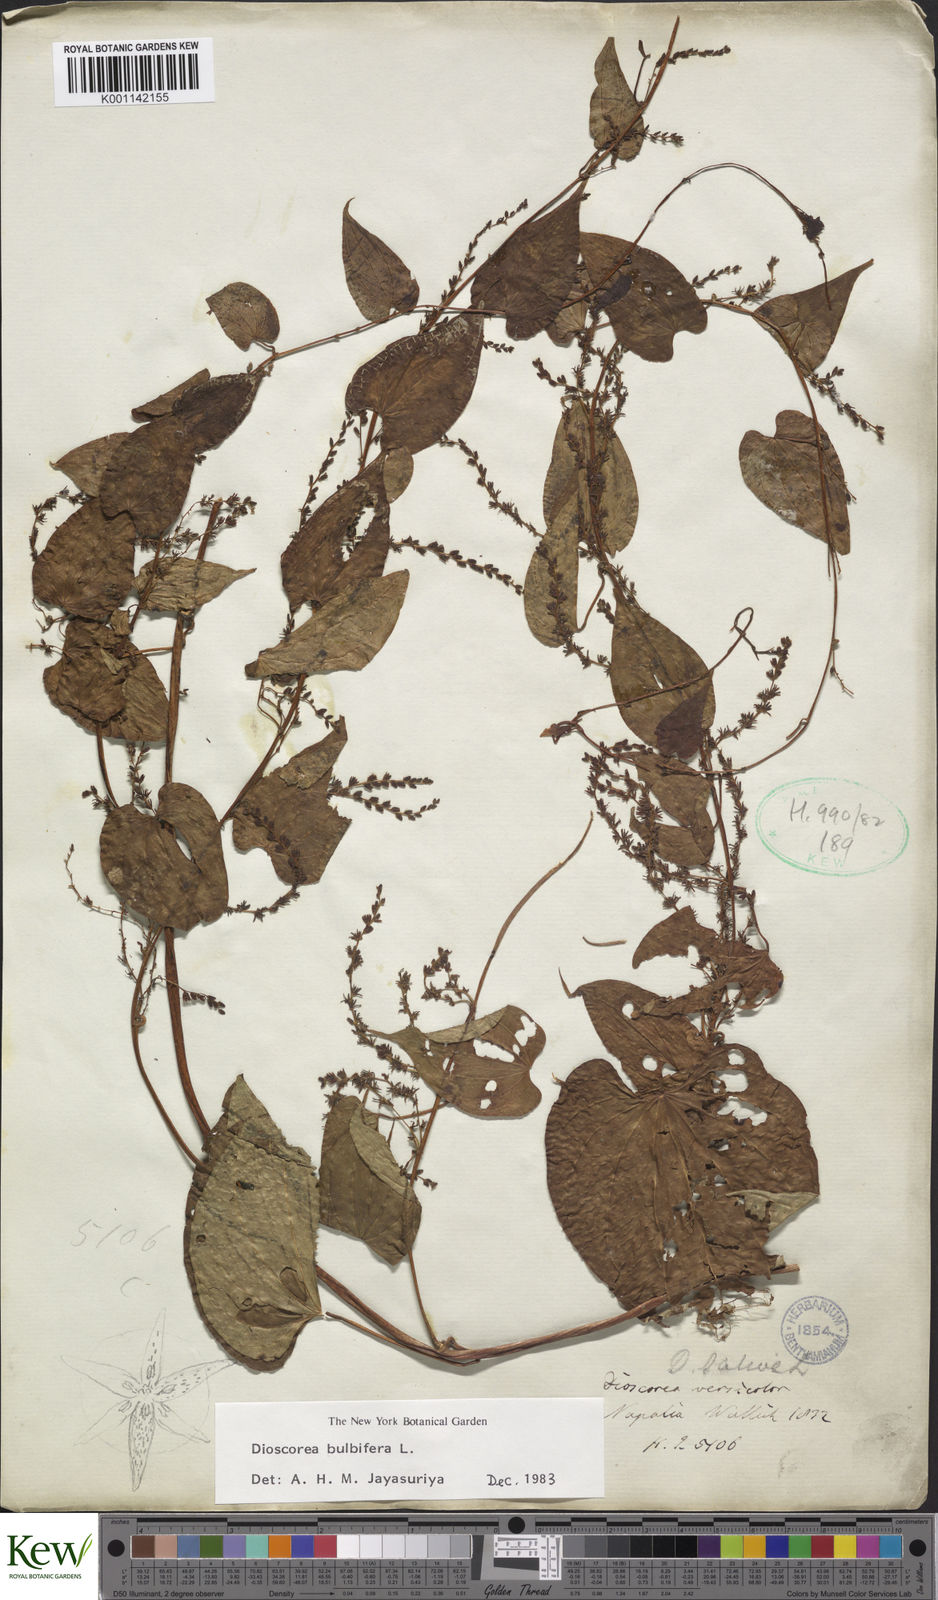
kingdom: Plantae
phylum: Tracheophyta
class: Liliopsida
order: Dioscoreales
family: Dioscoreaceae
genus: Dioscorea
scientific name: Dioscorea bulbifera
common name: Air yam
